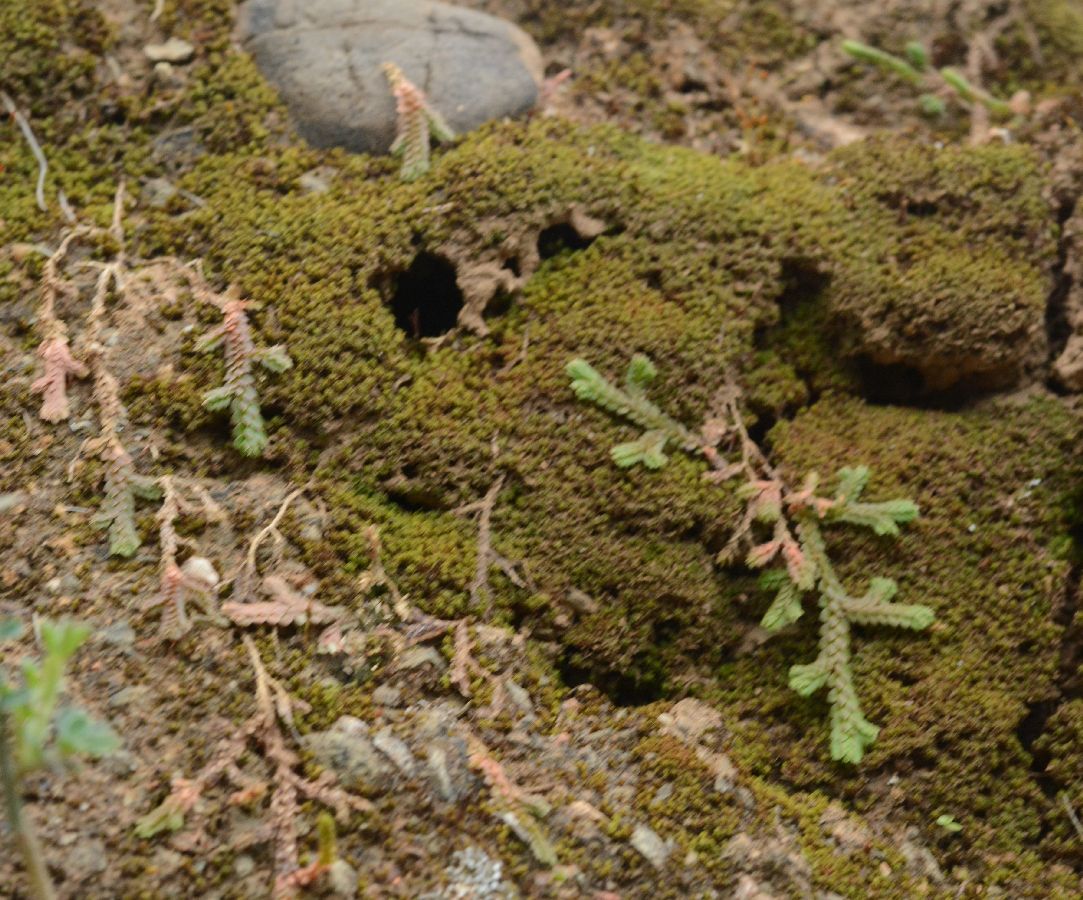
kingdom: Plantae
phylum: Tracheophyta
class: Lycopodiopsida
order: Selaginellales
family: Selaginellaceae
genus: Selaginella
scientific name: Selaginella denticulata
